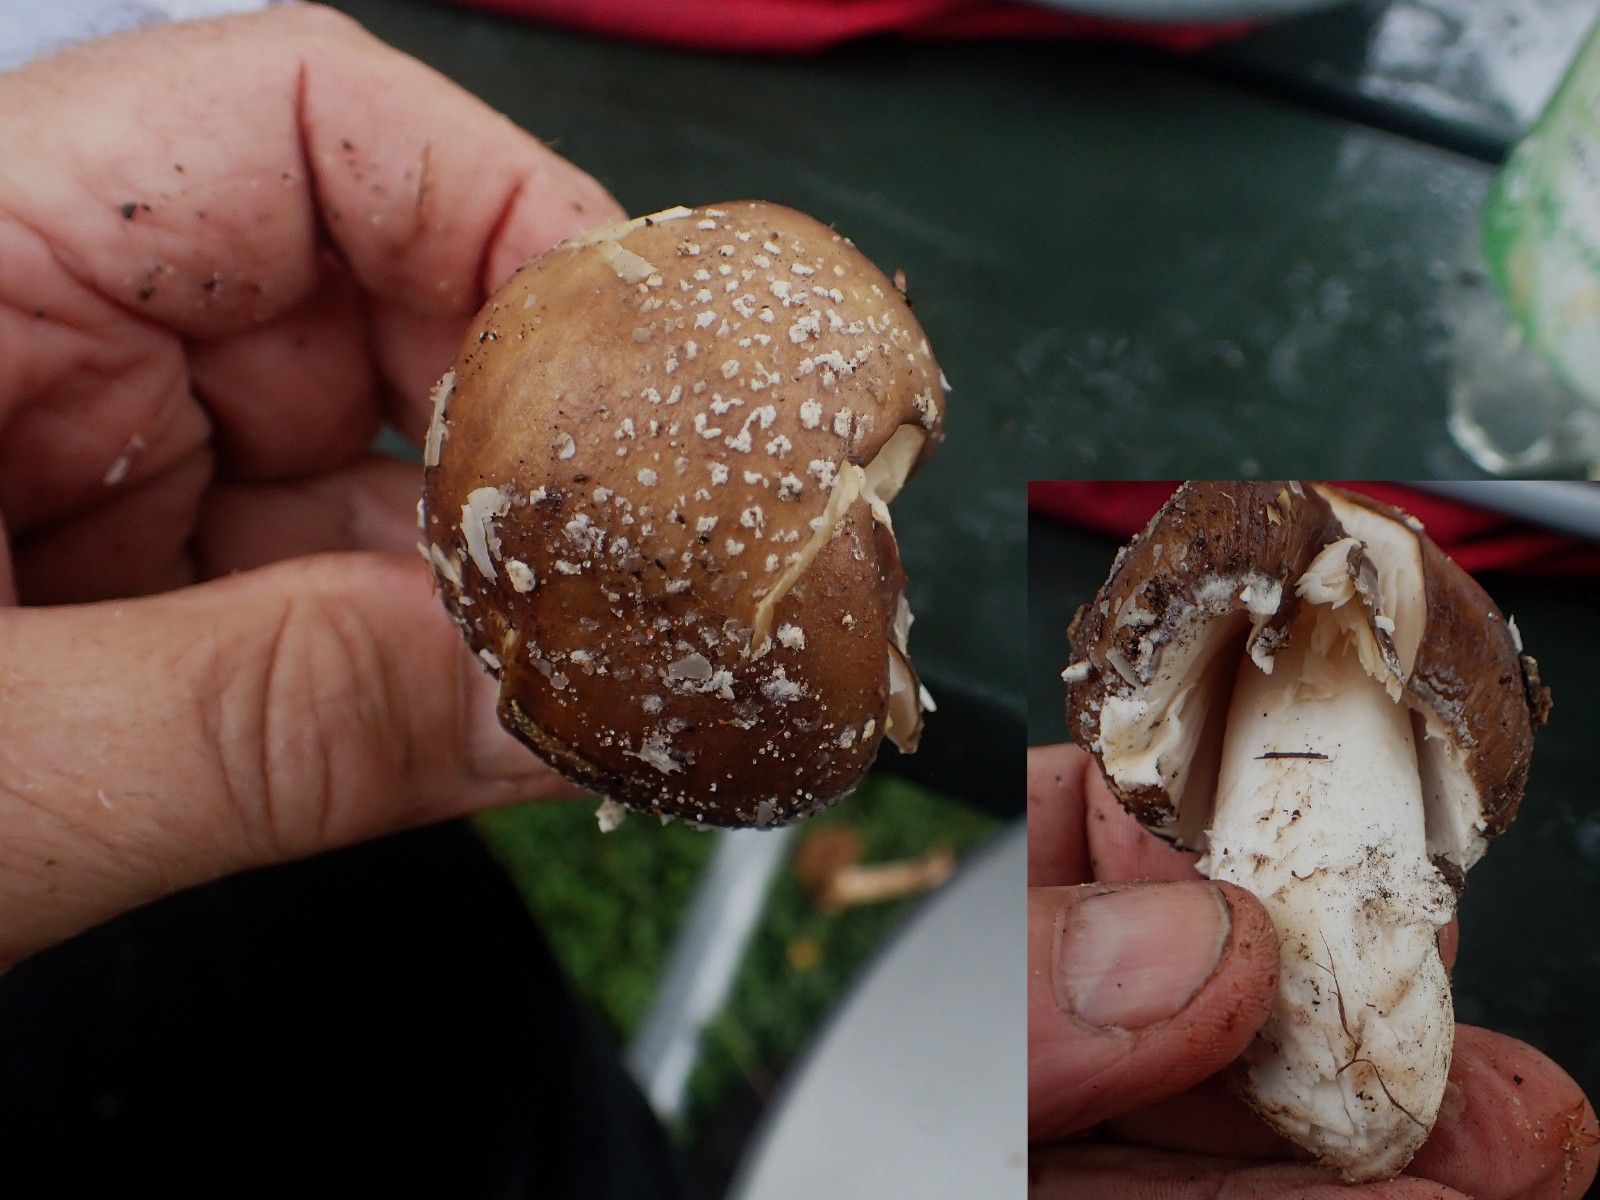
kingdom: Fungi
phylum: Basidiomycota
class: Agaricomycetes
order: Agaricales
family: Amanitaceae
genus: Amanita
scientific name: Amanita pantherina
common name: panter-fluesvamp
